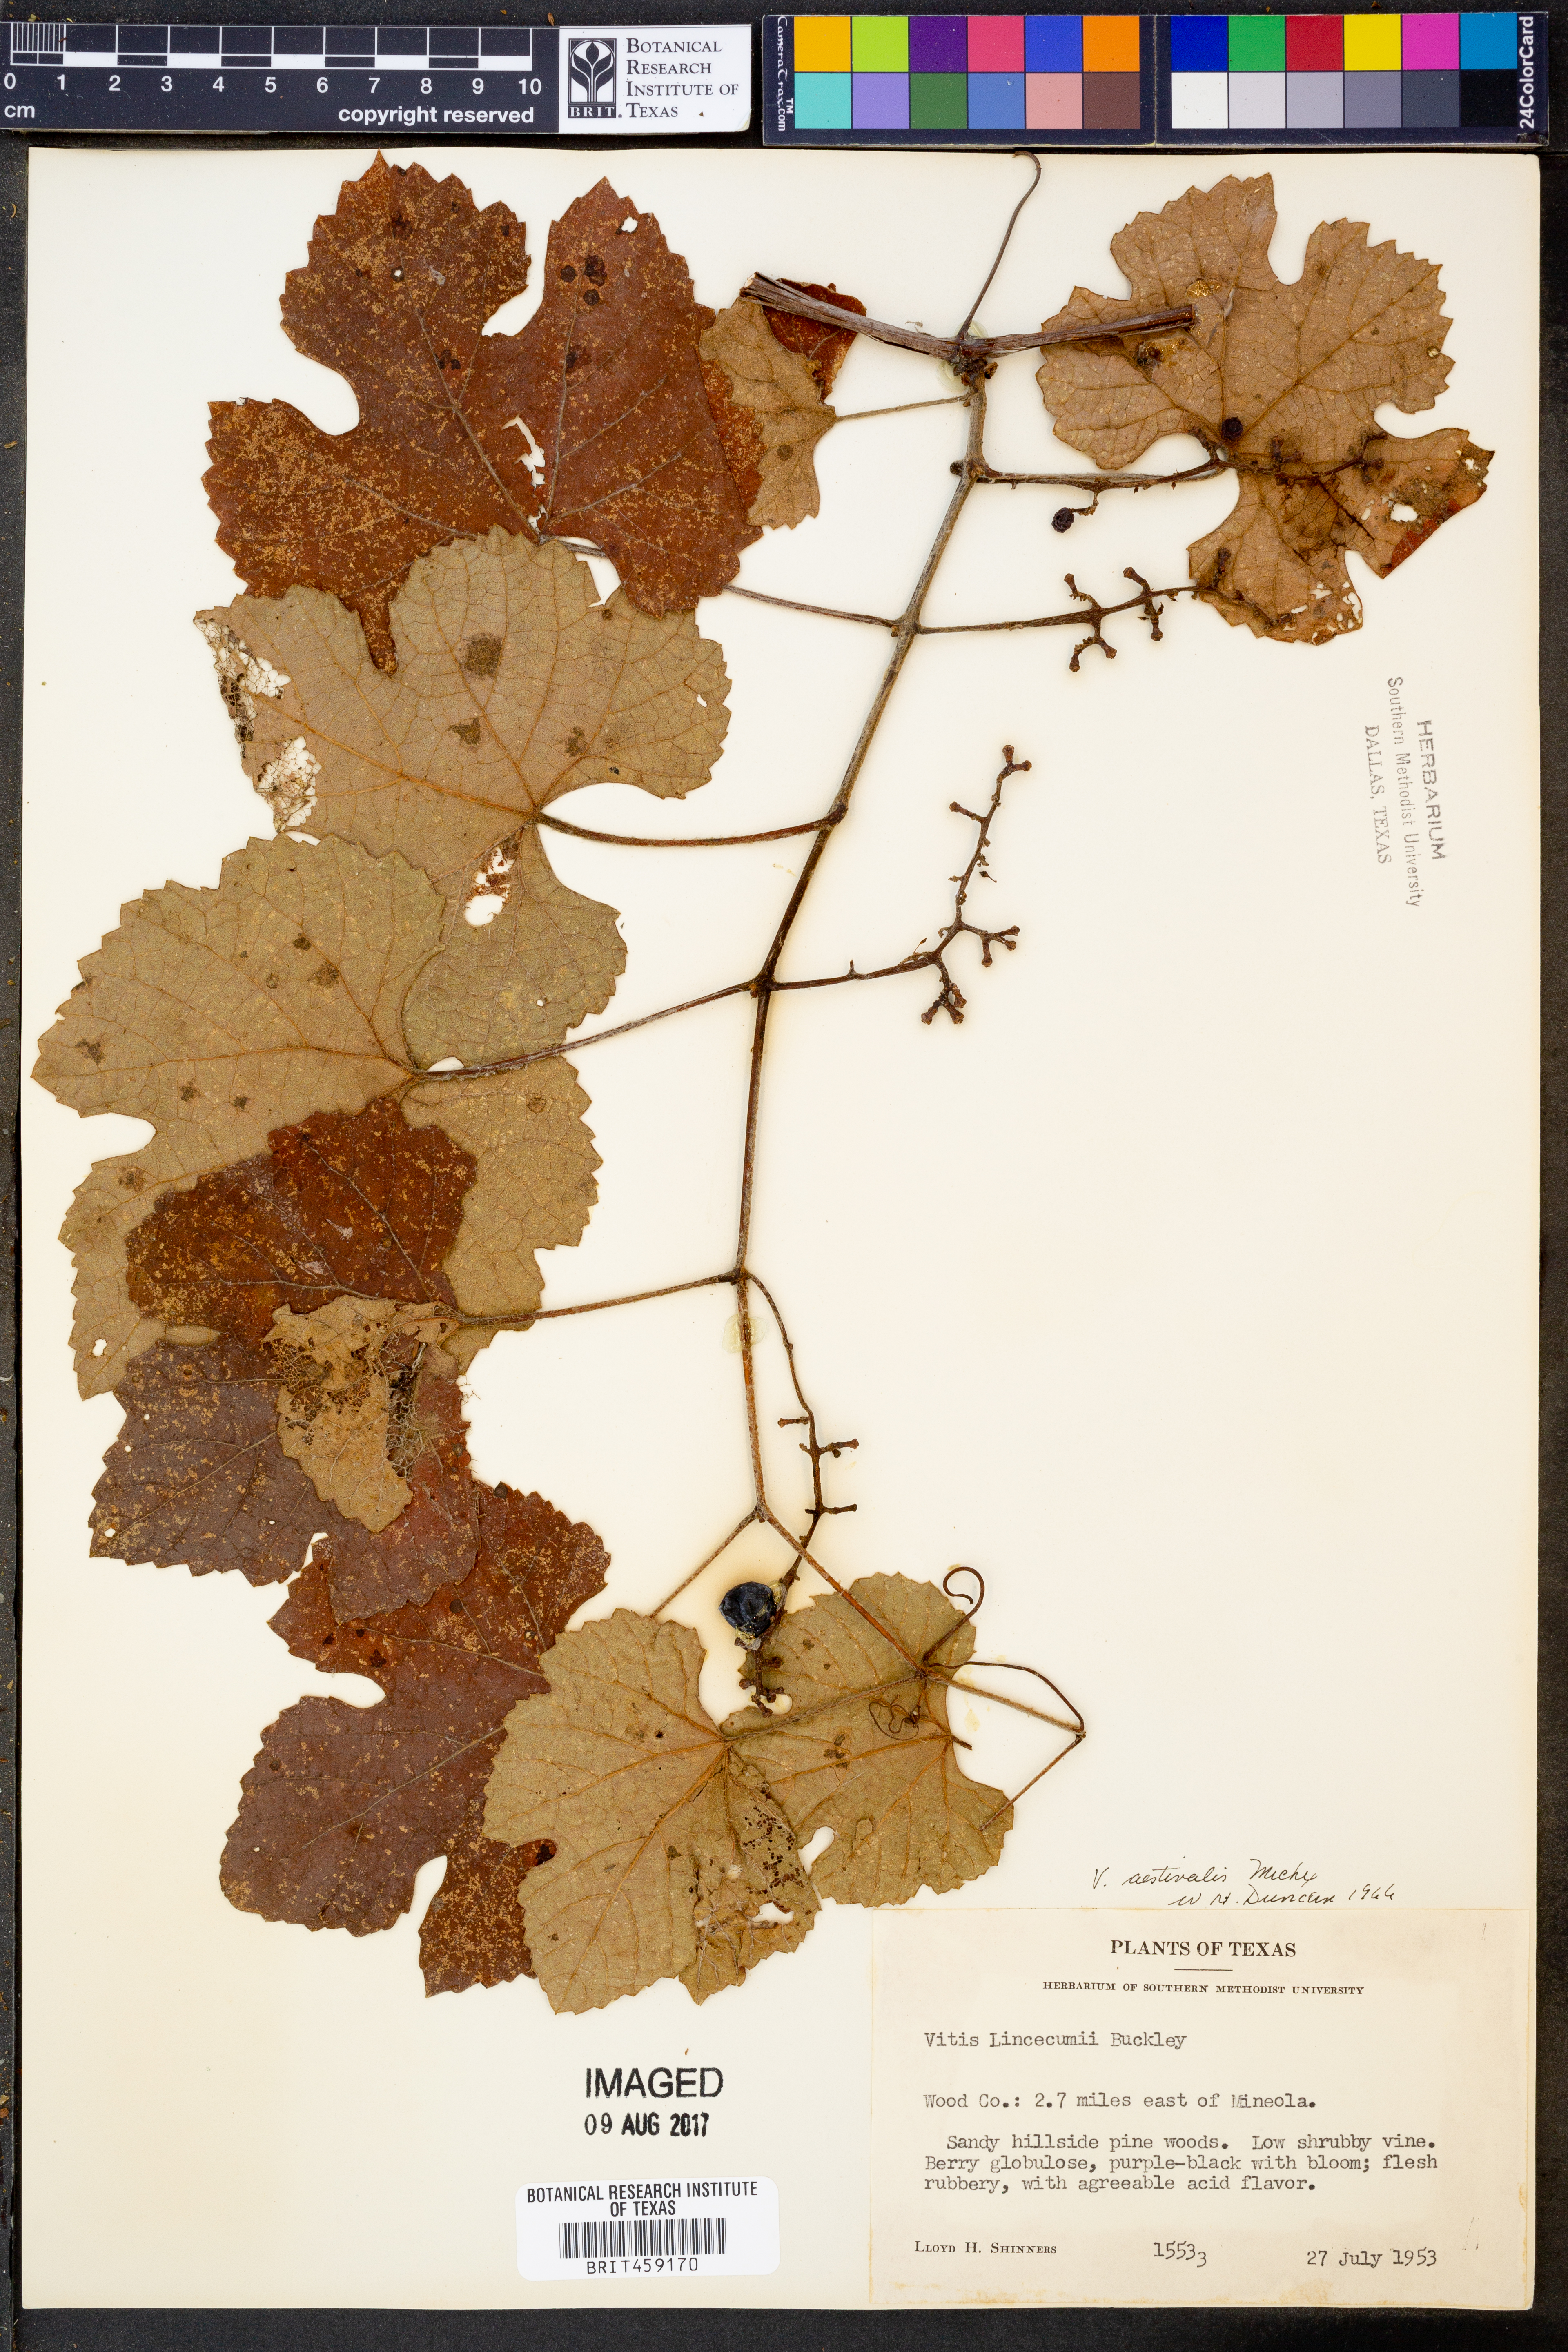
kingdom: Plantae
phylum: Tracheophyta
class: Magnoliopsida
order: Vitales
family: Vitaceae
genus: Vitis
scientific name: Vitis aestivalis
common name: Pigeon grape
